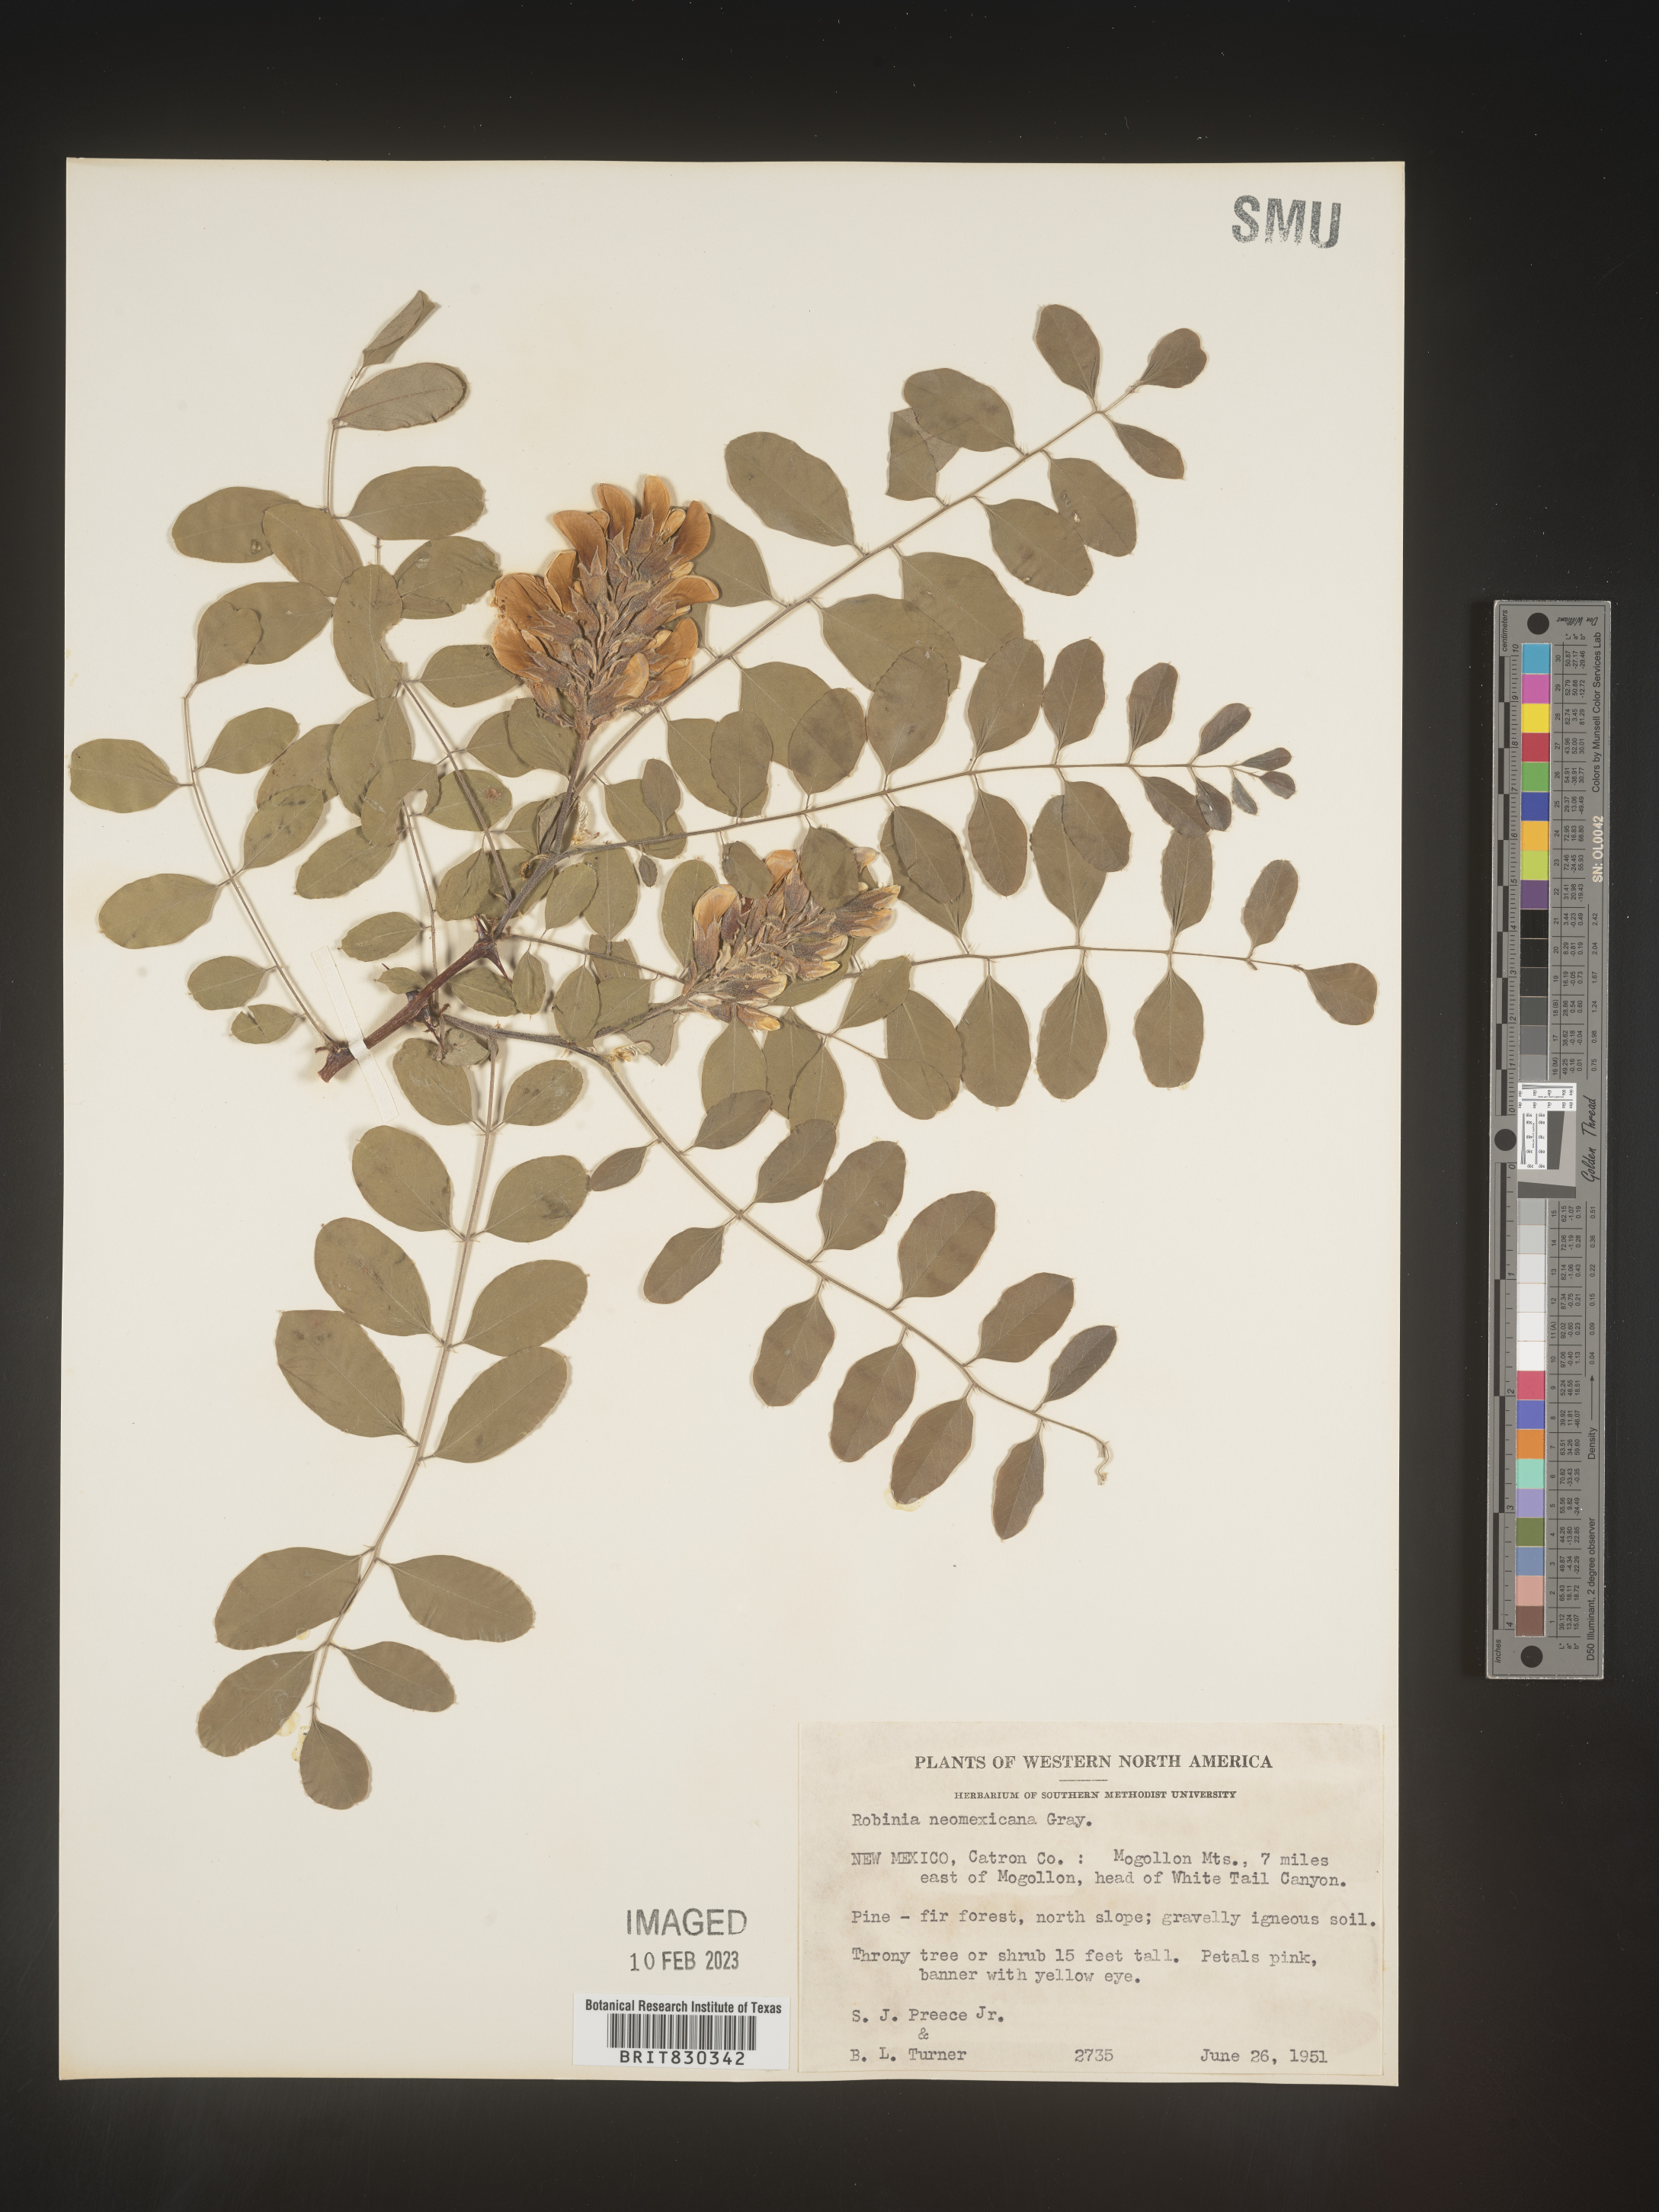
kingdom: Plantae
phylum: Tracheophyta
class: Magnoliopsida
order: Fabales
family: Fabaceae
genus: Robinia
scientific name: Robinia neomexicana
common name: New mexico locust
